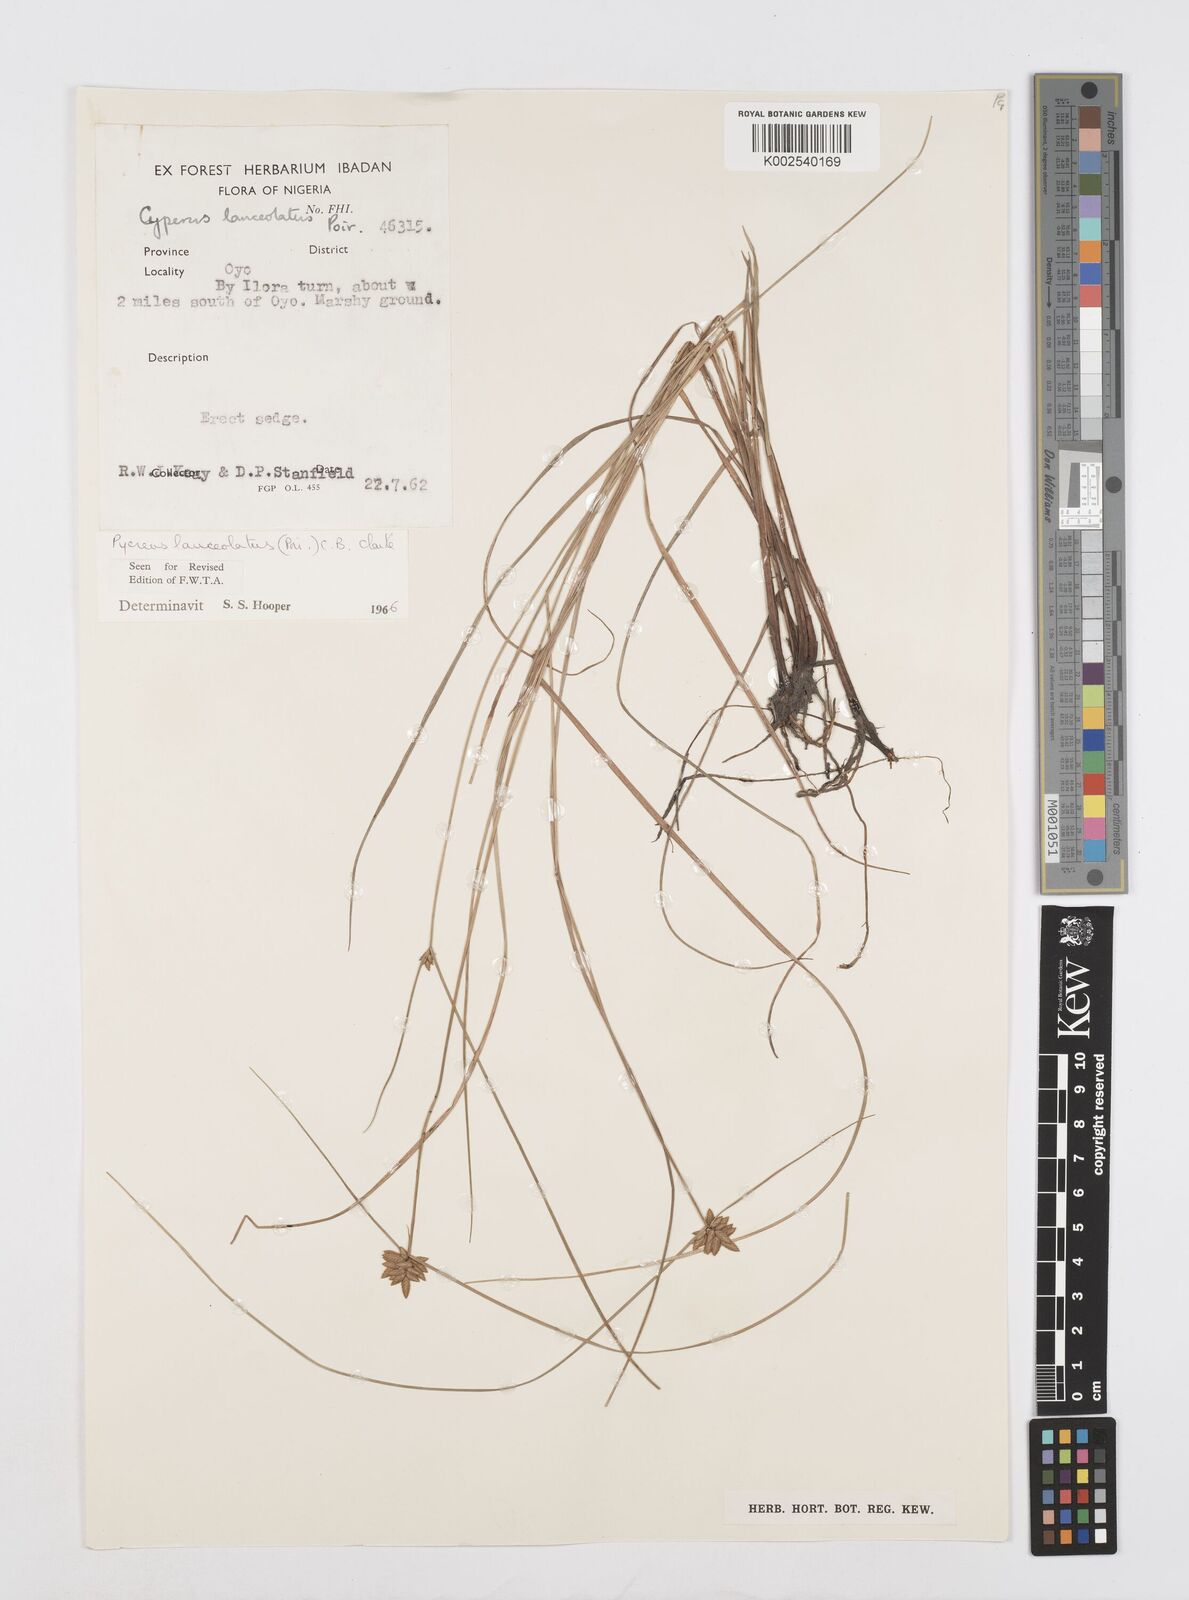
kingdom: Plantae
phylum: Tracheophyta
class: Liliopsida
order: Poales
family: Cyperaceae
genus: Cyperus
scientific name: Cyperus
